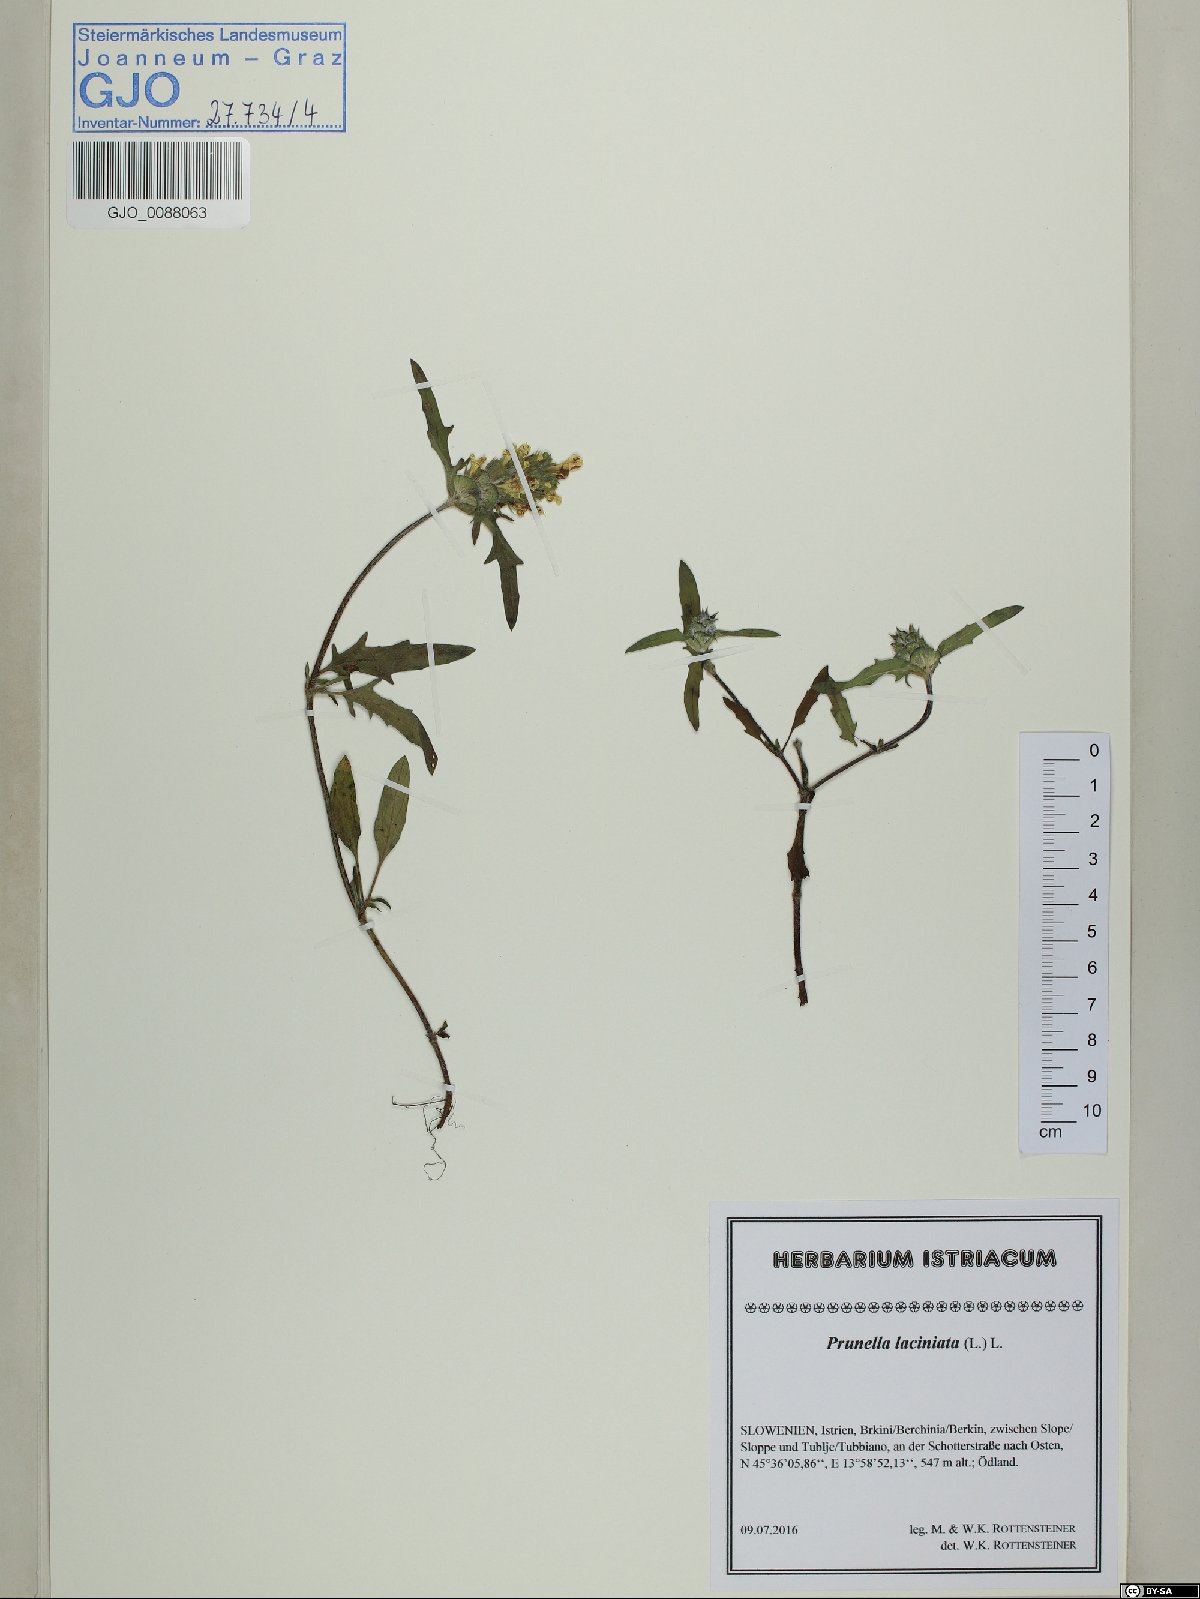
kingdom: Plantae
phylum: Tracheophyta
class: Magnoliopsida
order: Lamiales
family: Lamiaceae
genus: Prunella
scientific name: Prunella laciniata
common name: Cut-leaved selfheal
